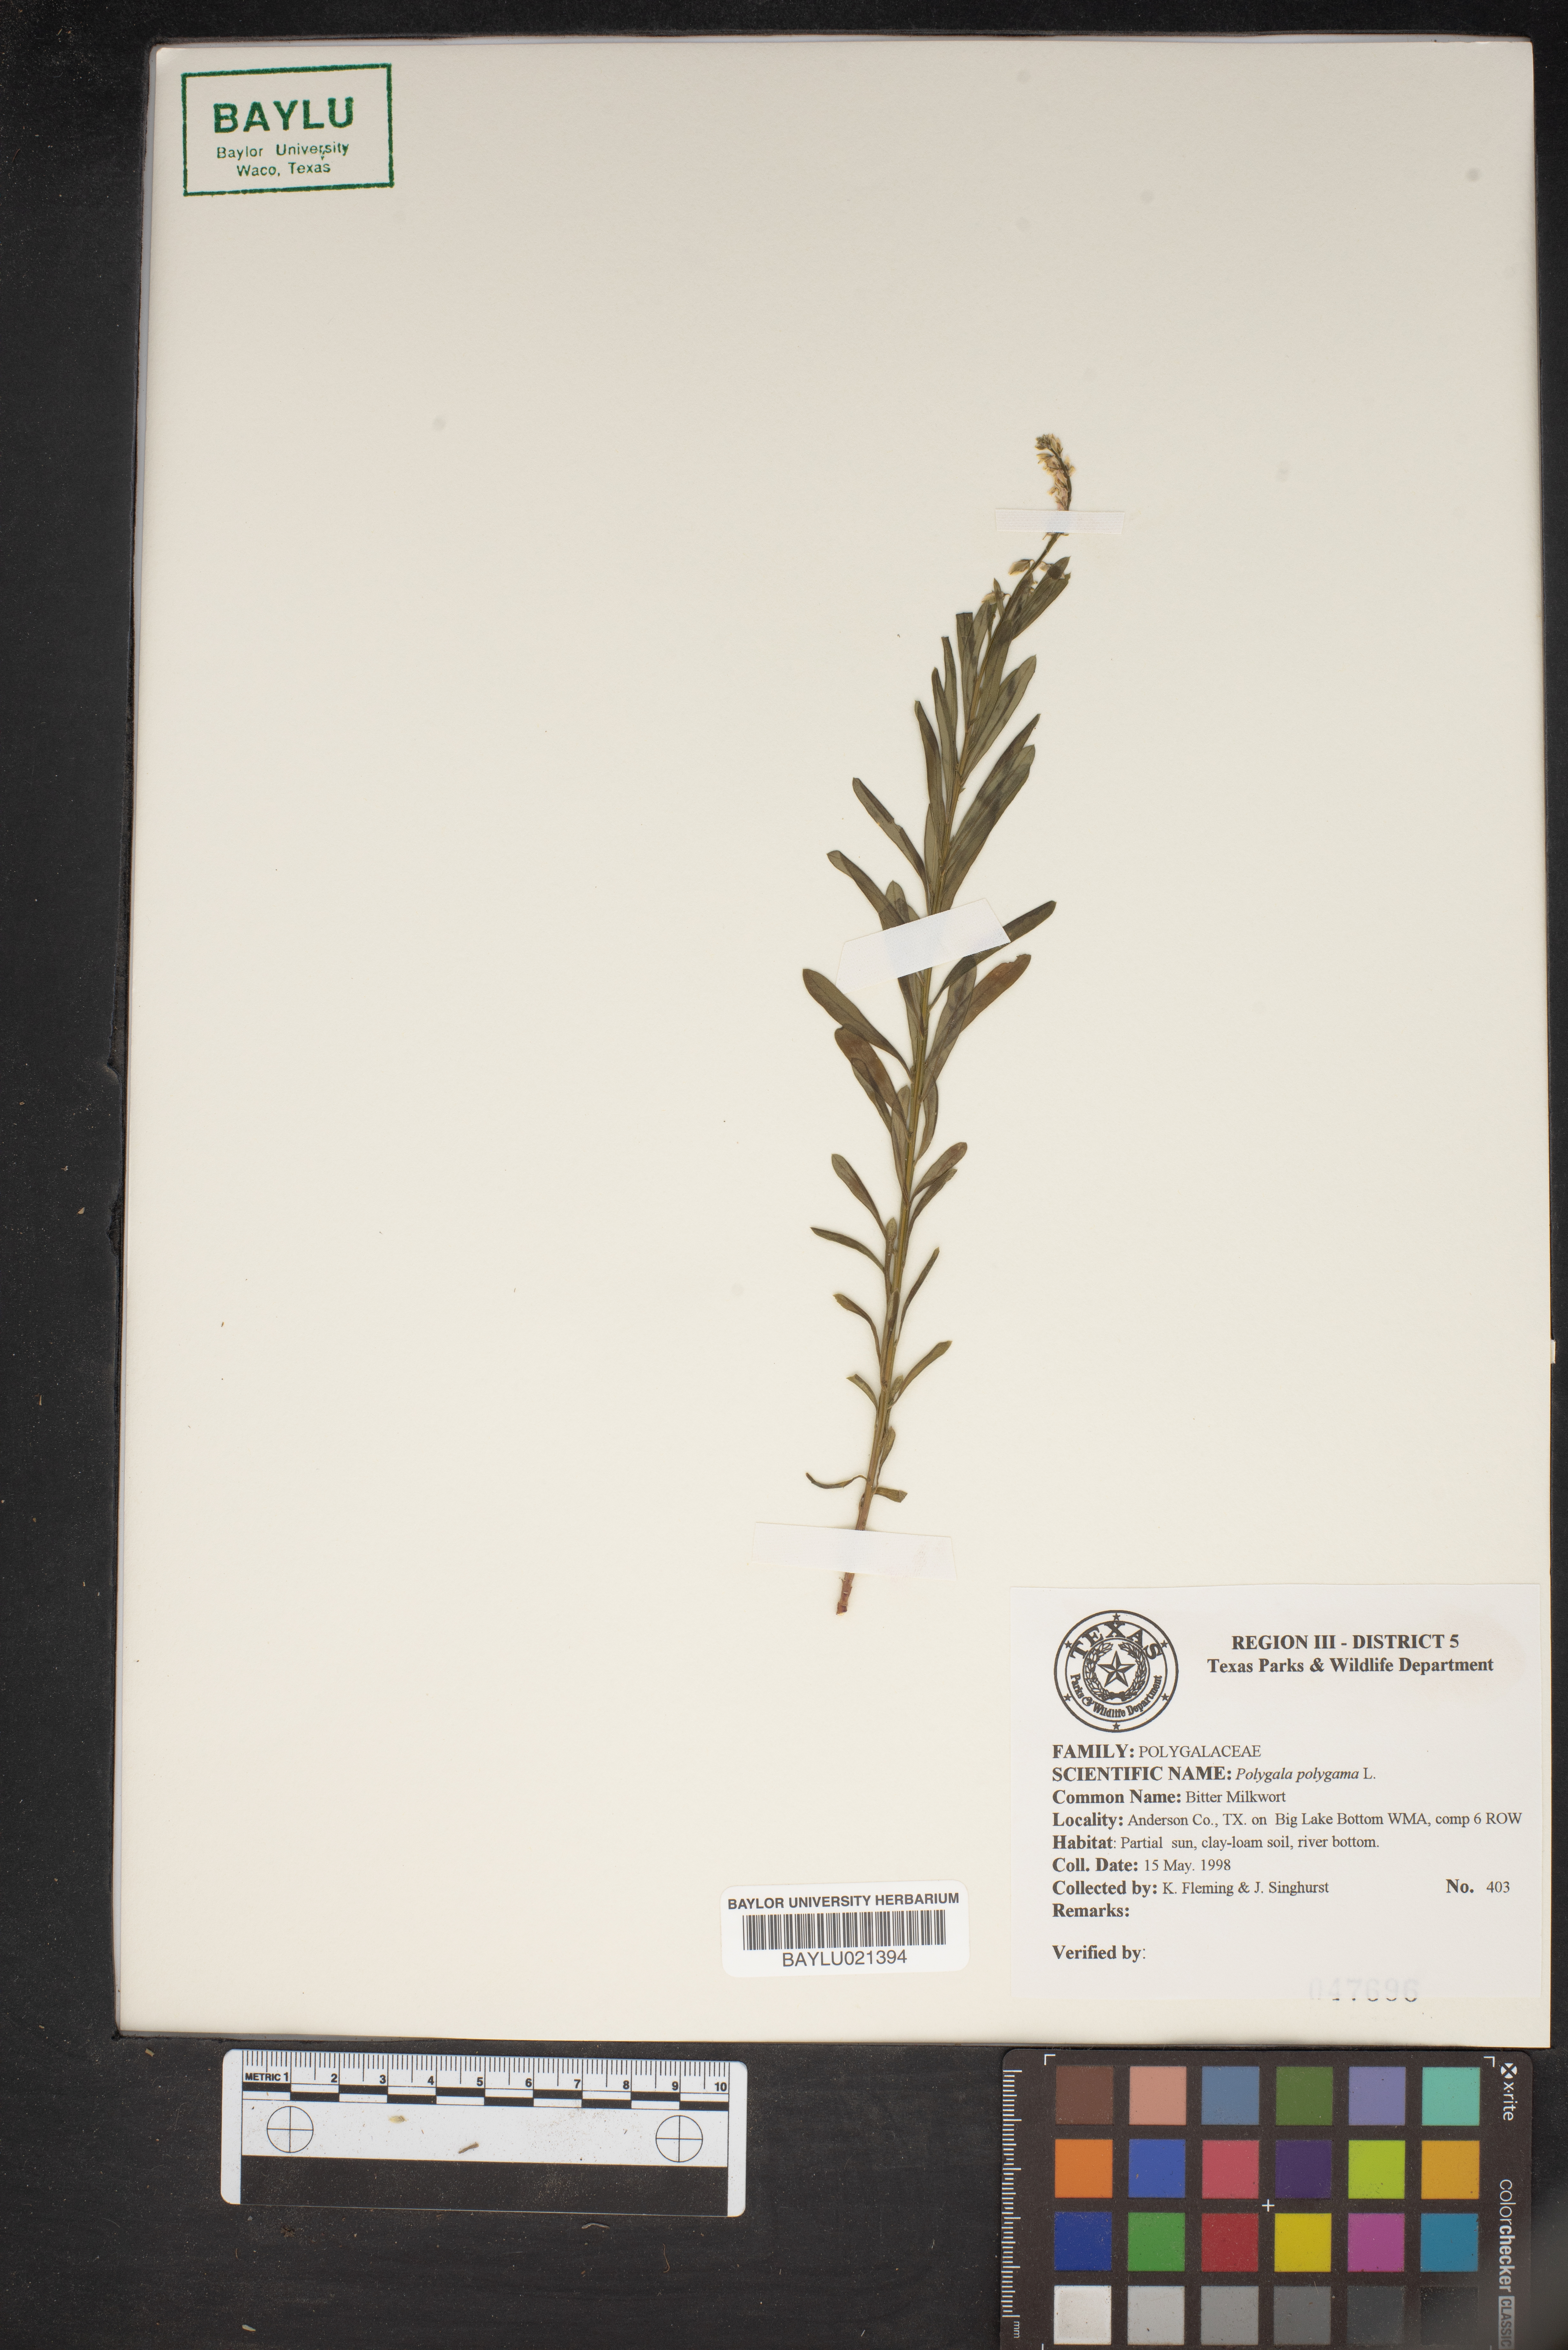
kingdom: Plantae
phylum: Tracheophyta
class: Magnoliopsida
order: Fabales
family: Polygalaceae
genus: Polygala
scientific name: Polygala polygama
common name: Bitter milkwort
